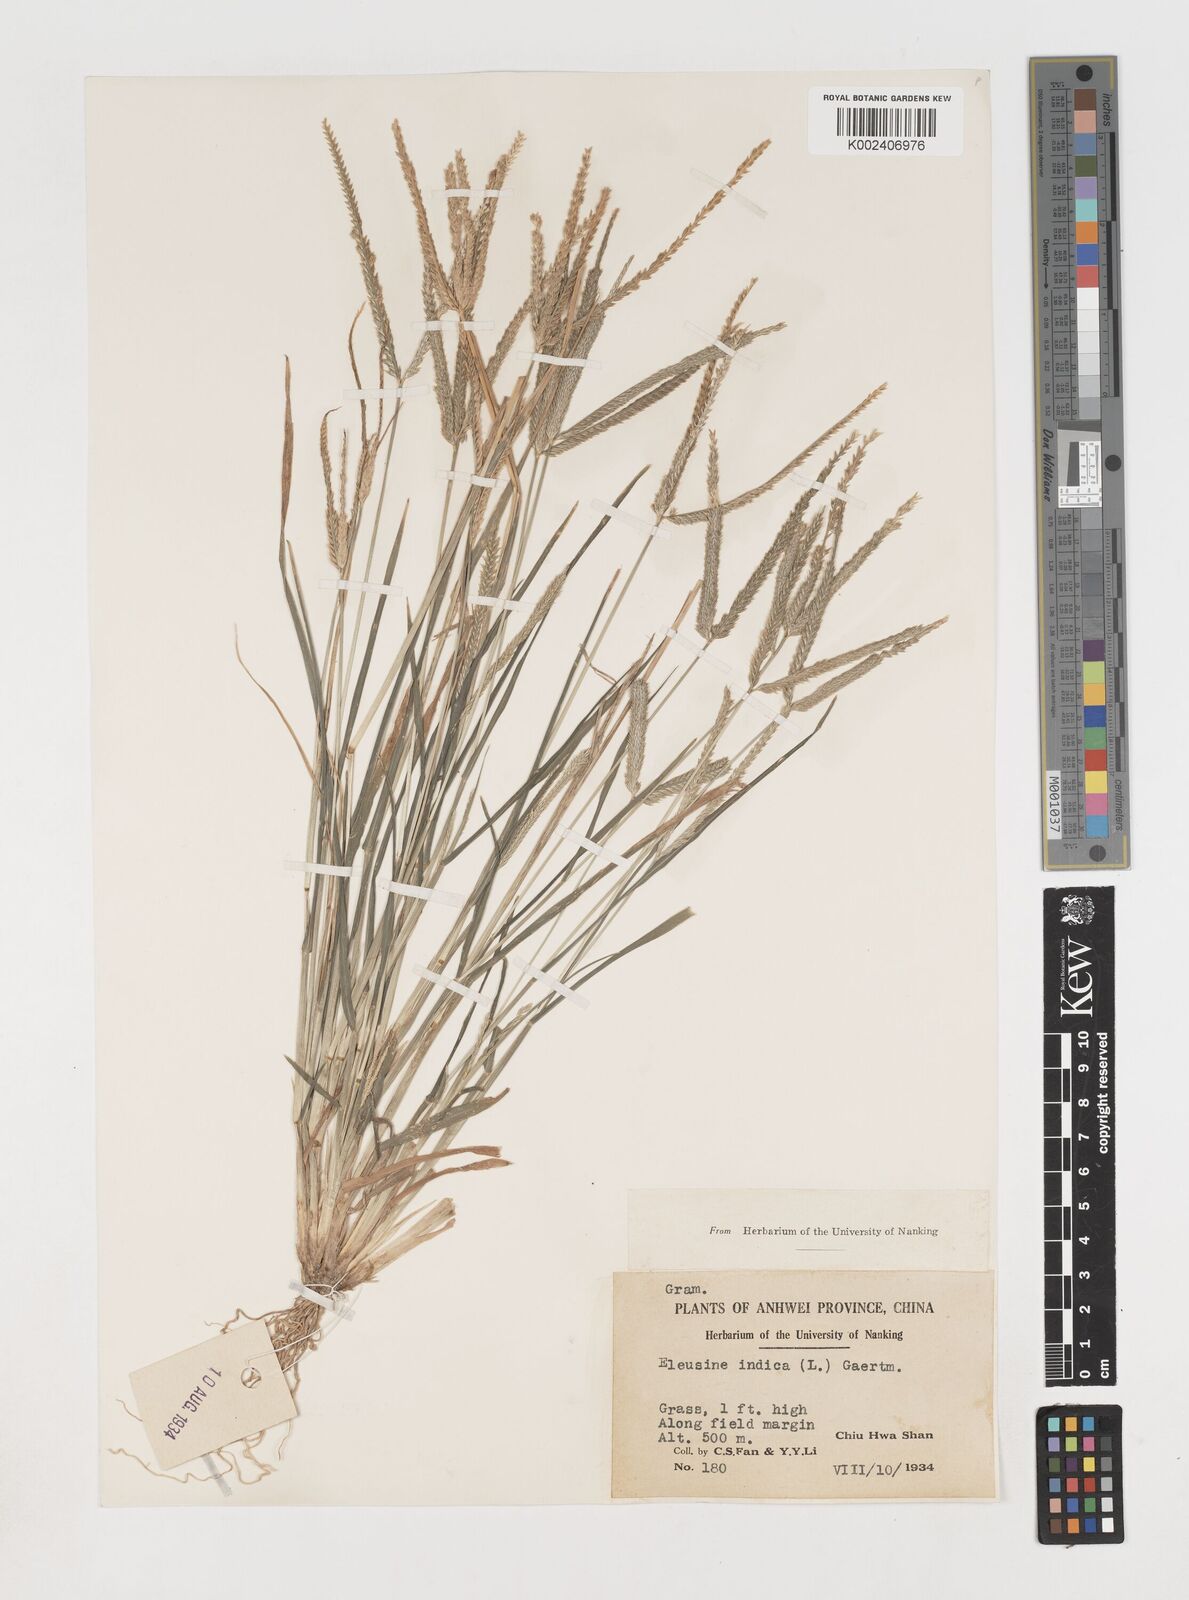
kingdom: Plantae
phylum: Tracheophyta
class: Liliopsida
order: Poales
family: Poaceae
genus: Eleusine
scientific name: Eleusine indica
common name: Yard-grass
